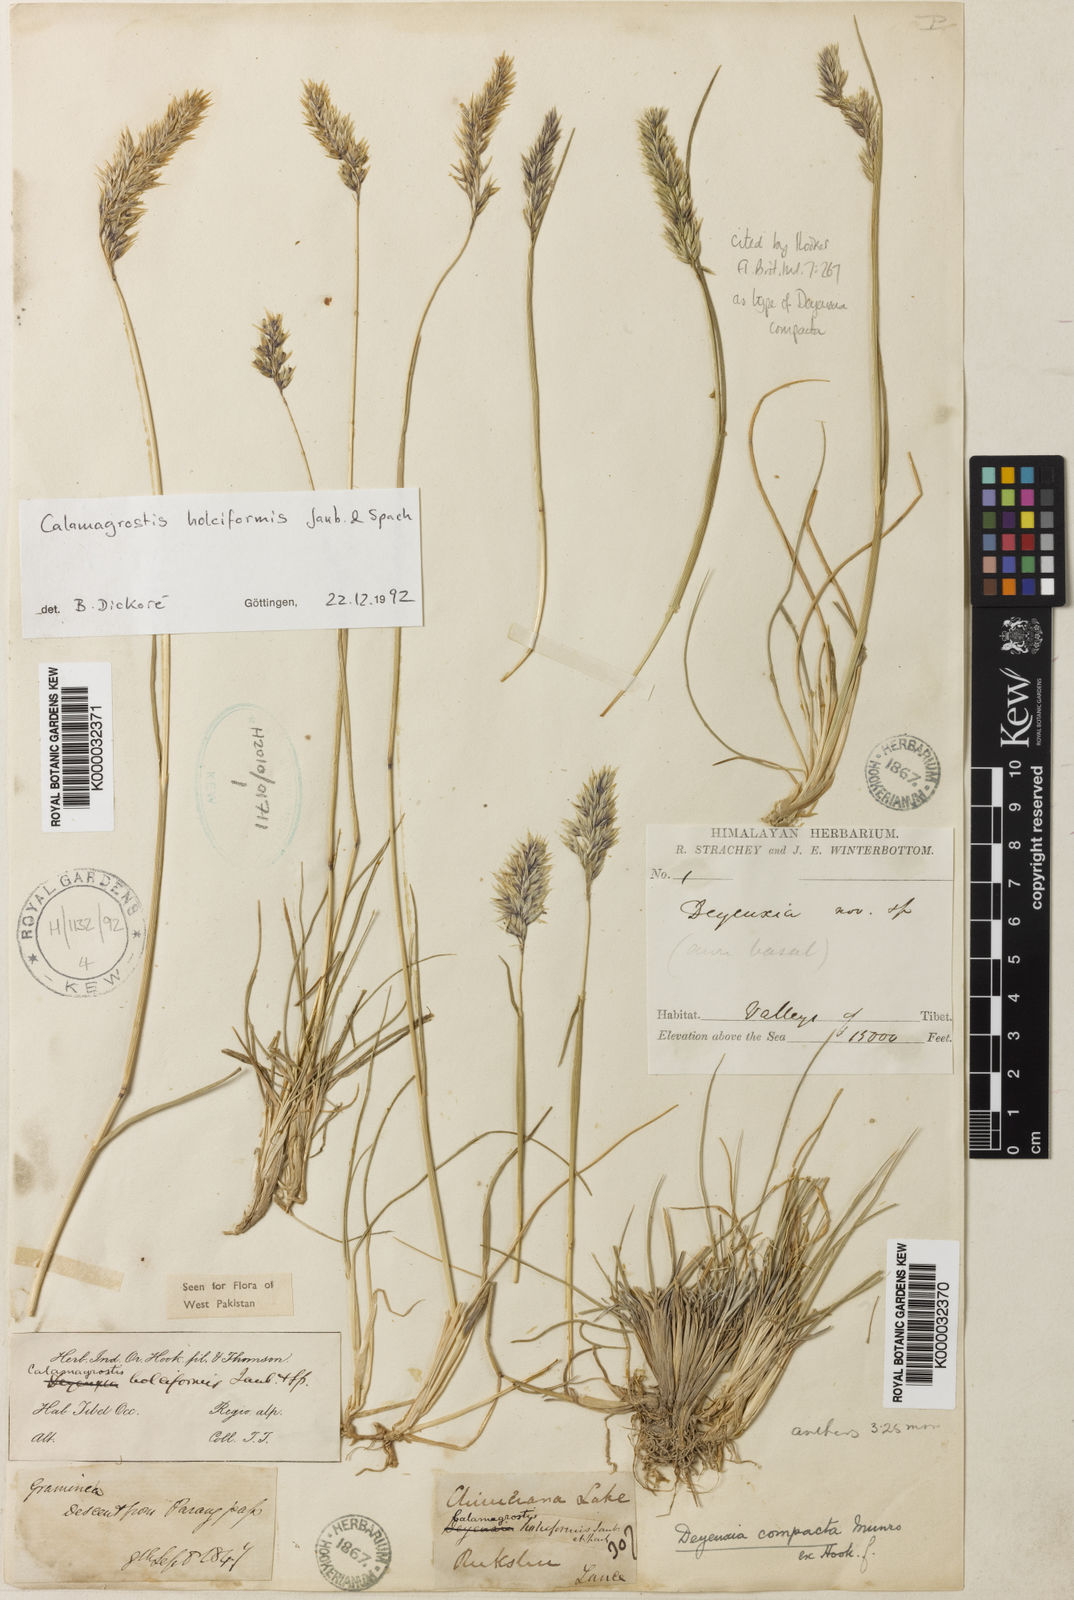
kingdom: Plantae
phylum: Tracheophyta
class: Liliopsida
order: Poales
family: Poaceae
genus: Calamagrostis
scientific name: Calamagrostis holciformis
